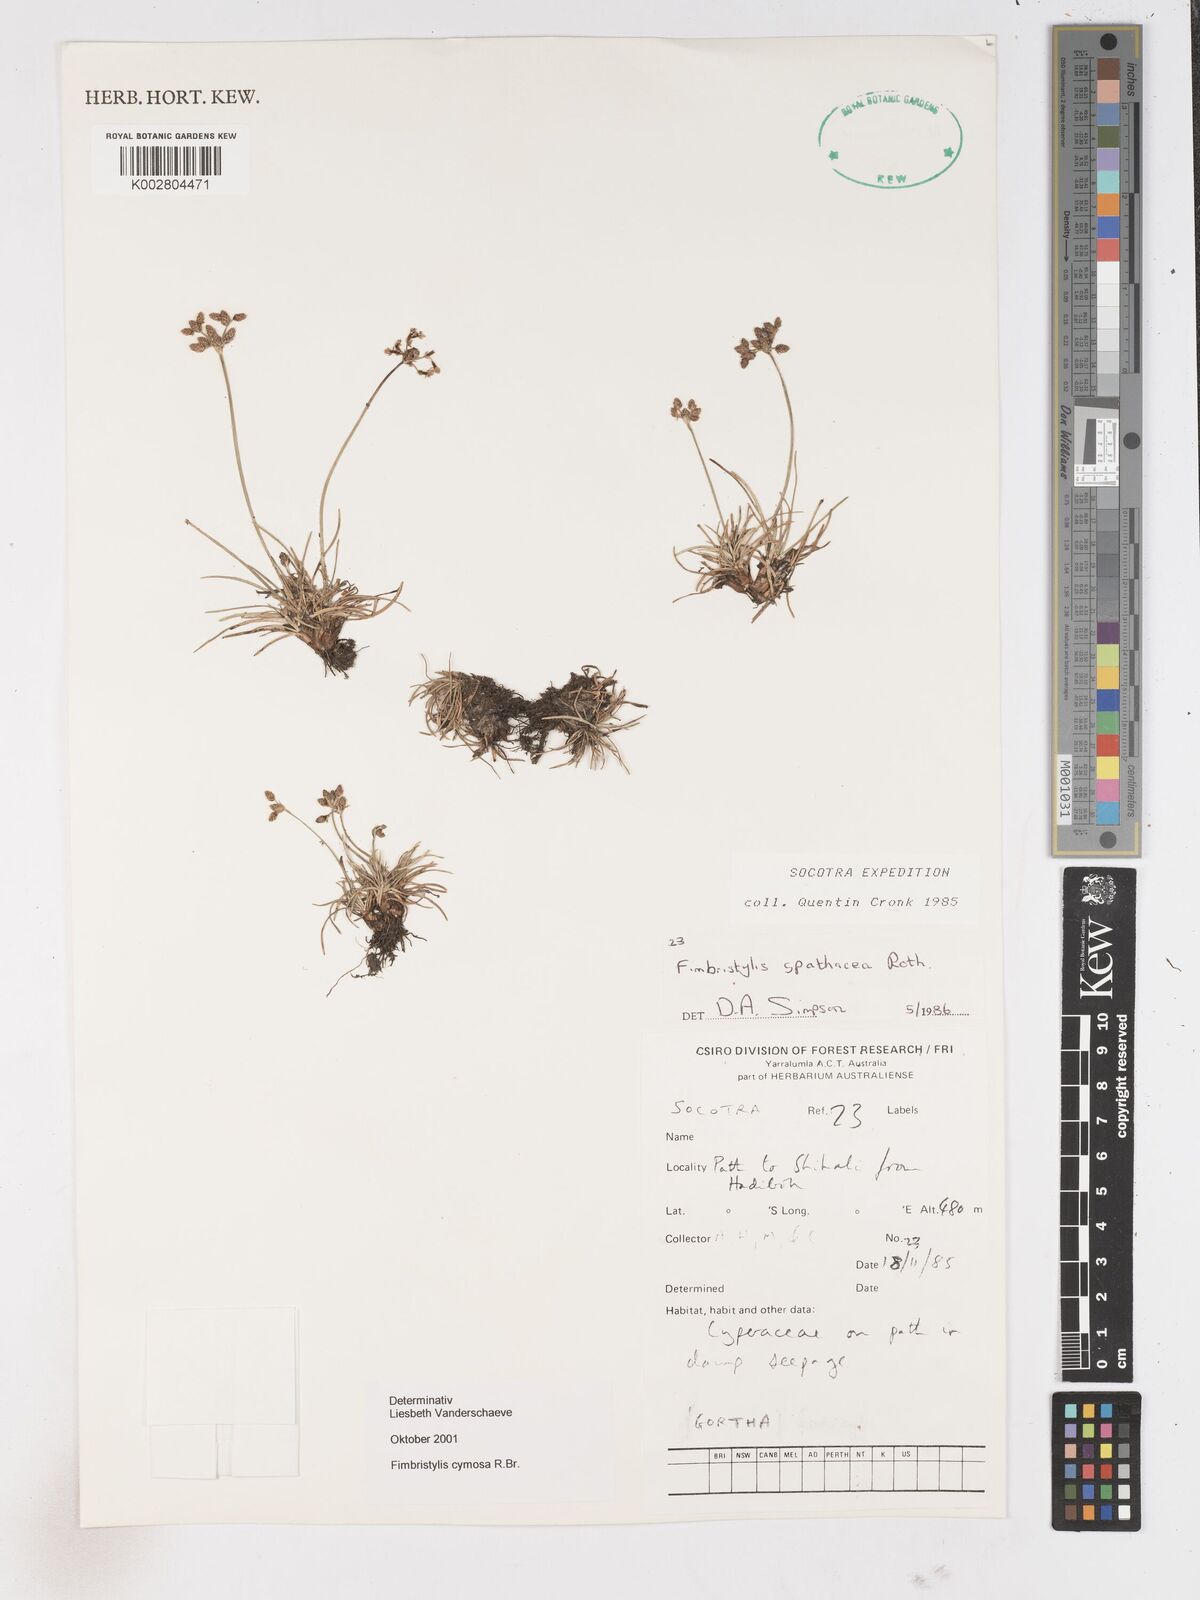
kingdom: Plantae
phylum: Tracheophyta
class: Liliopsida
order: Poales
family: Cyperaceae
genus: Fimbristylis
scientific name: Fimbristylis cymosa
